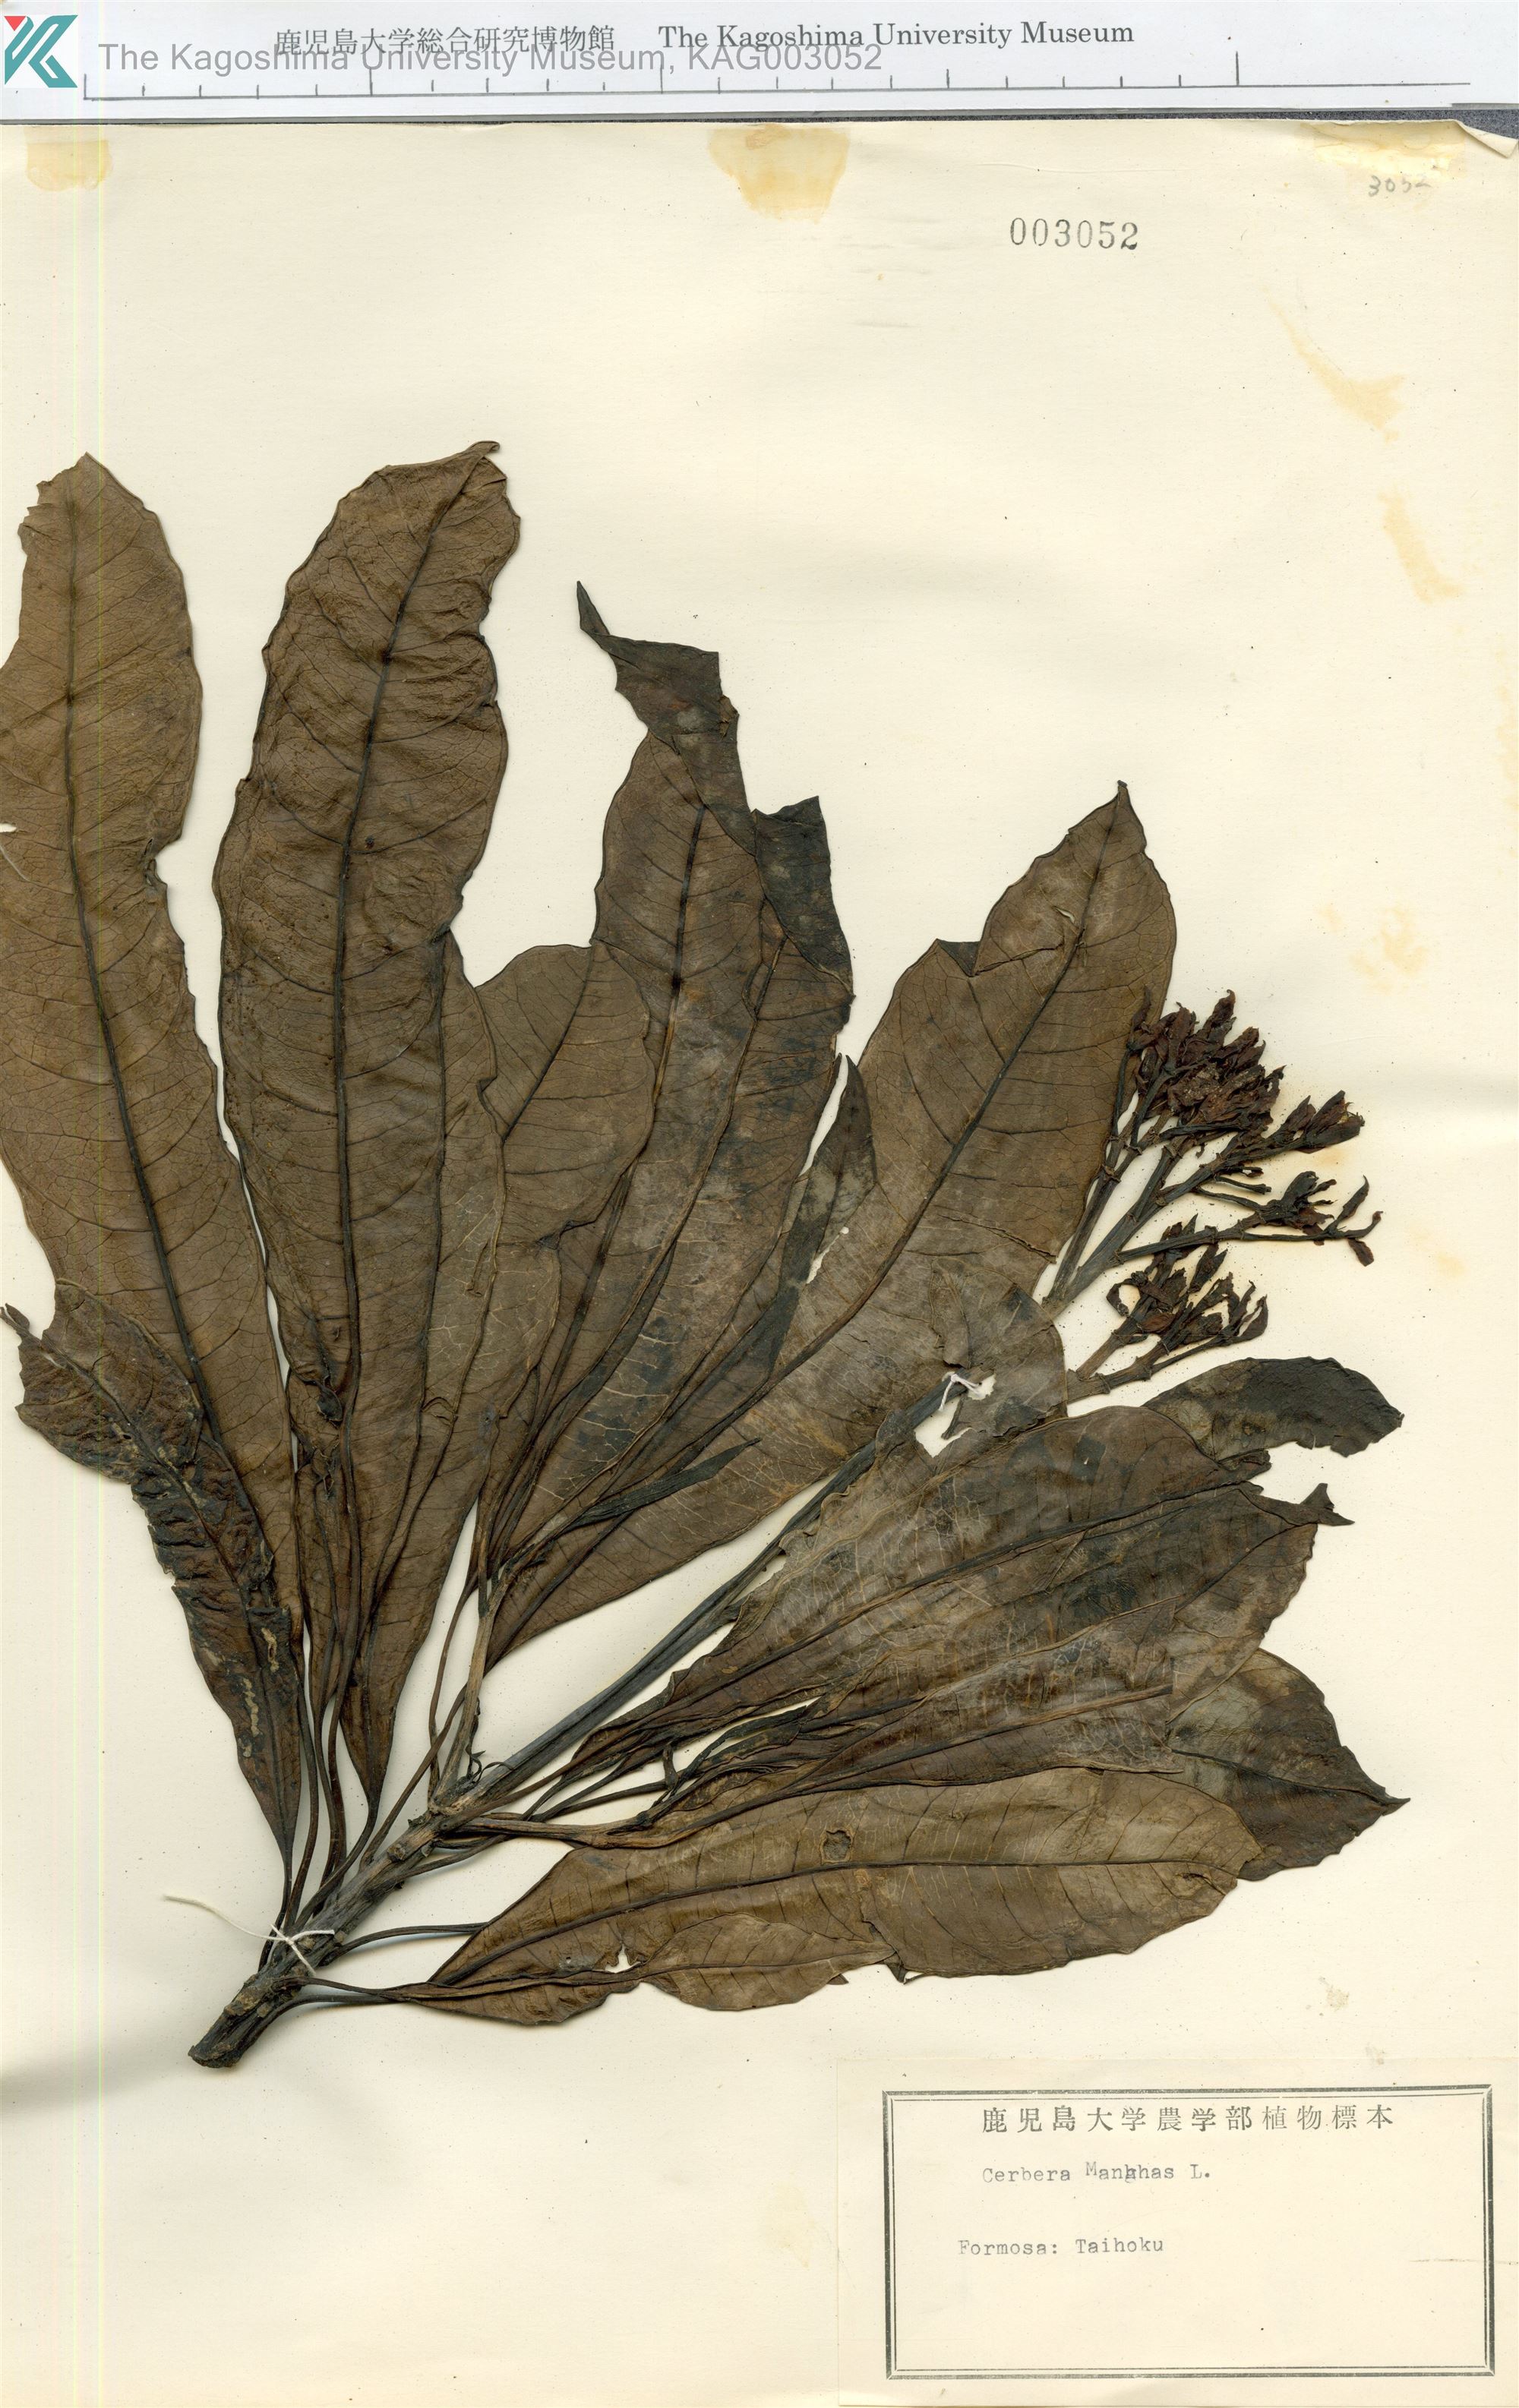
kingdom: Plantae
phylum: Tracheophyta
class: Magnoliopsida
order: Gentianales
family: Apocynaceae
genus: Cerbera
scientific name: Cerbera manghas
